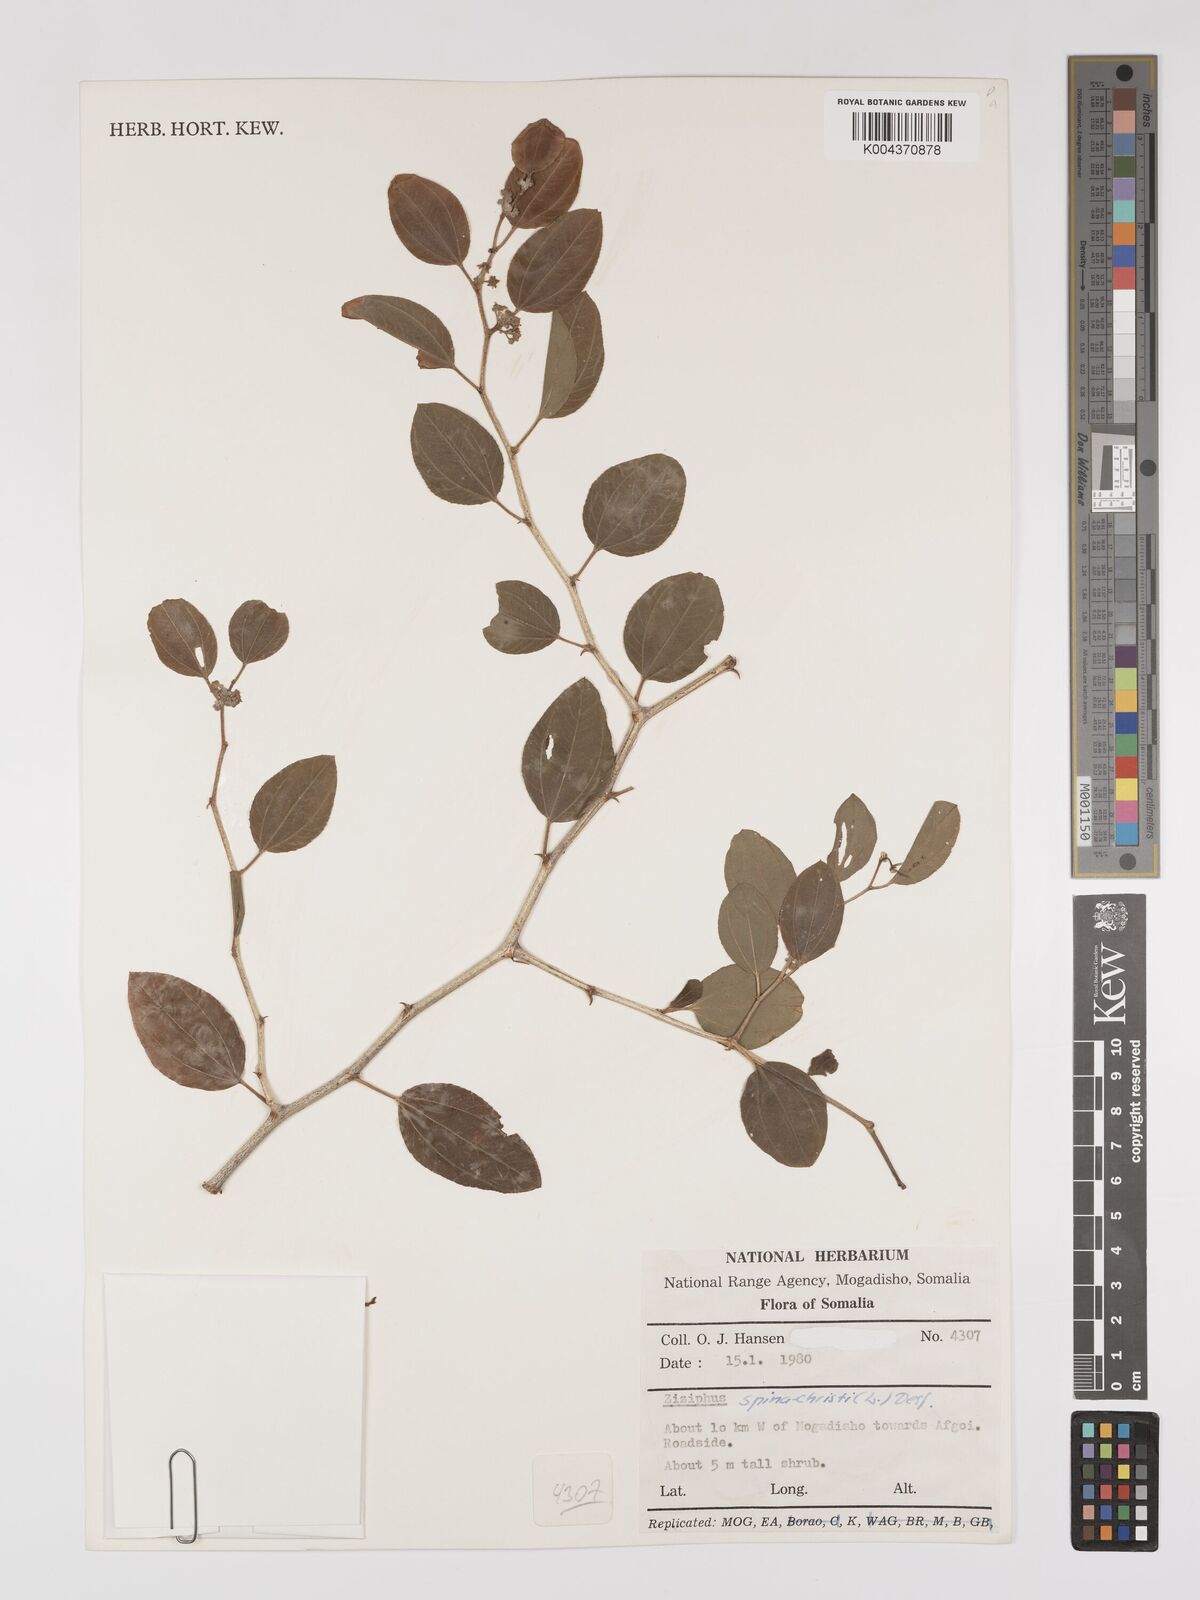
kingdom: Plantae
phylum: Tracheophyta
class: Magnoliopsida
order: Rosales
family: Rhamnaceae
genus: Ziziphus
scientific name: Ziziphus spina-christi
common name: Syrian christ-thorn
